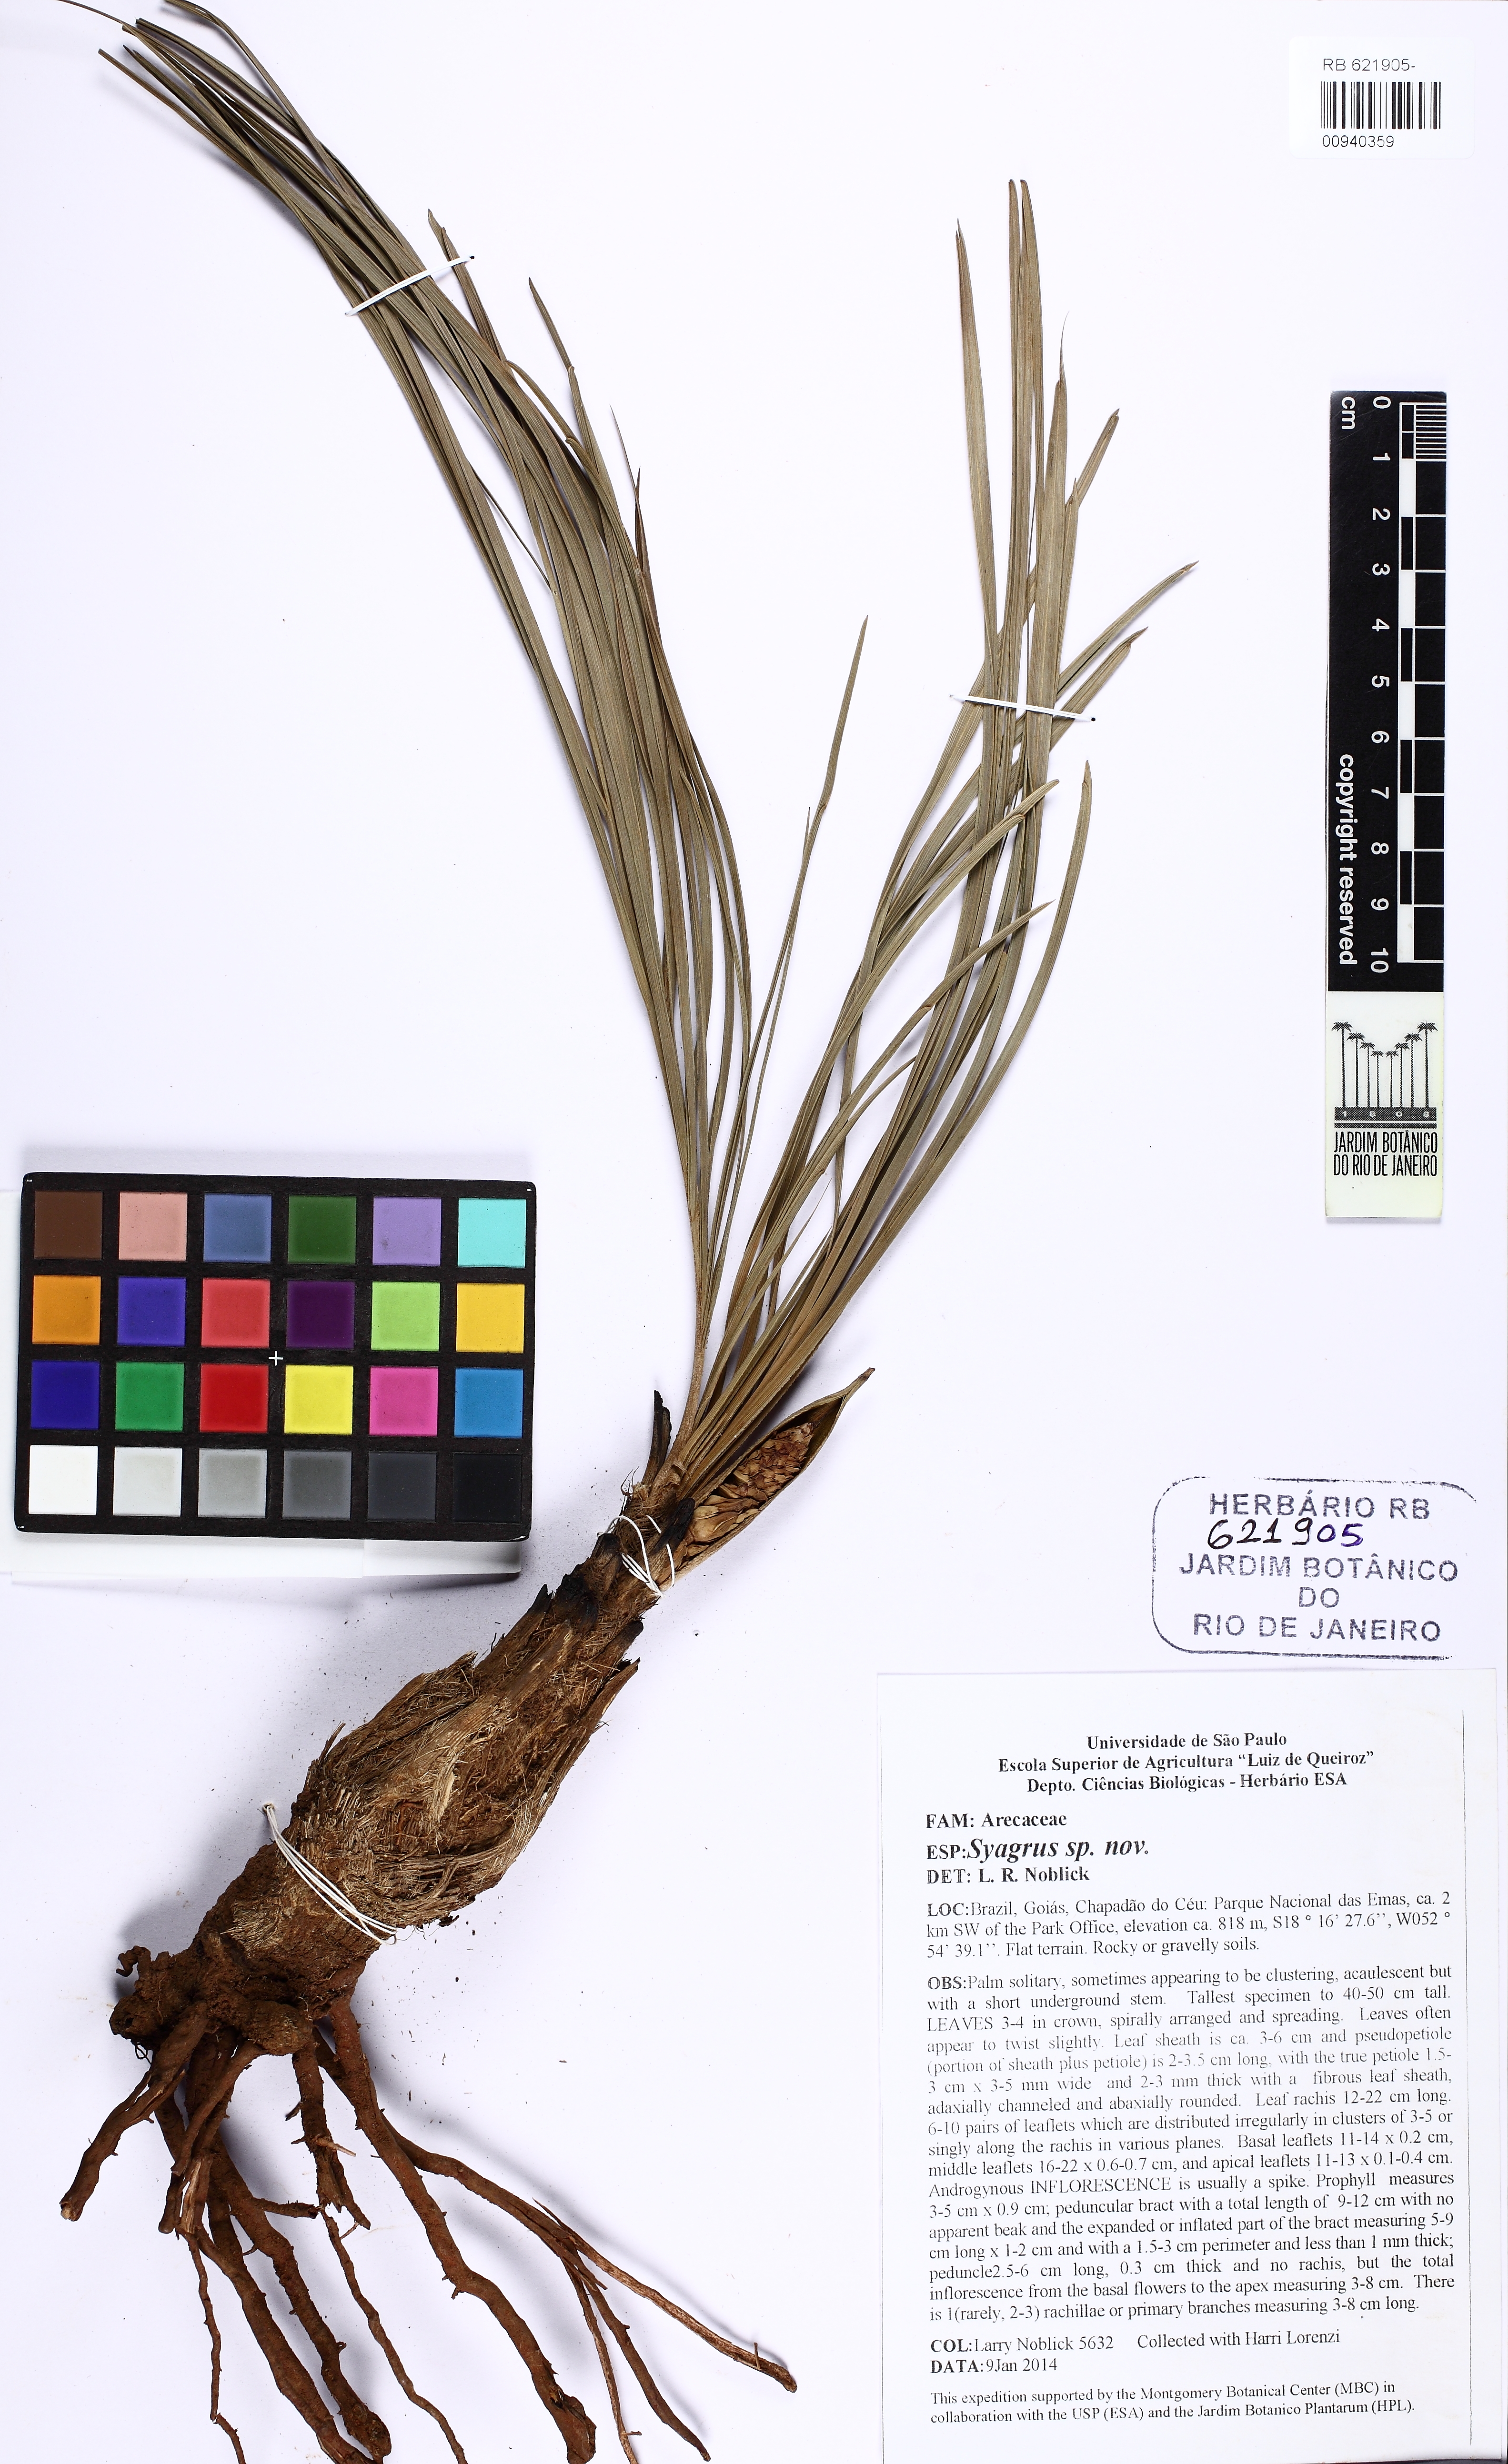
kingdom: Plantae
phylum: Tracheophyta
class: Liliopsida
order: Arecales
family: Arecaceae
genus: Syagrus
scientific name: Syagrus emasensis
